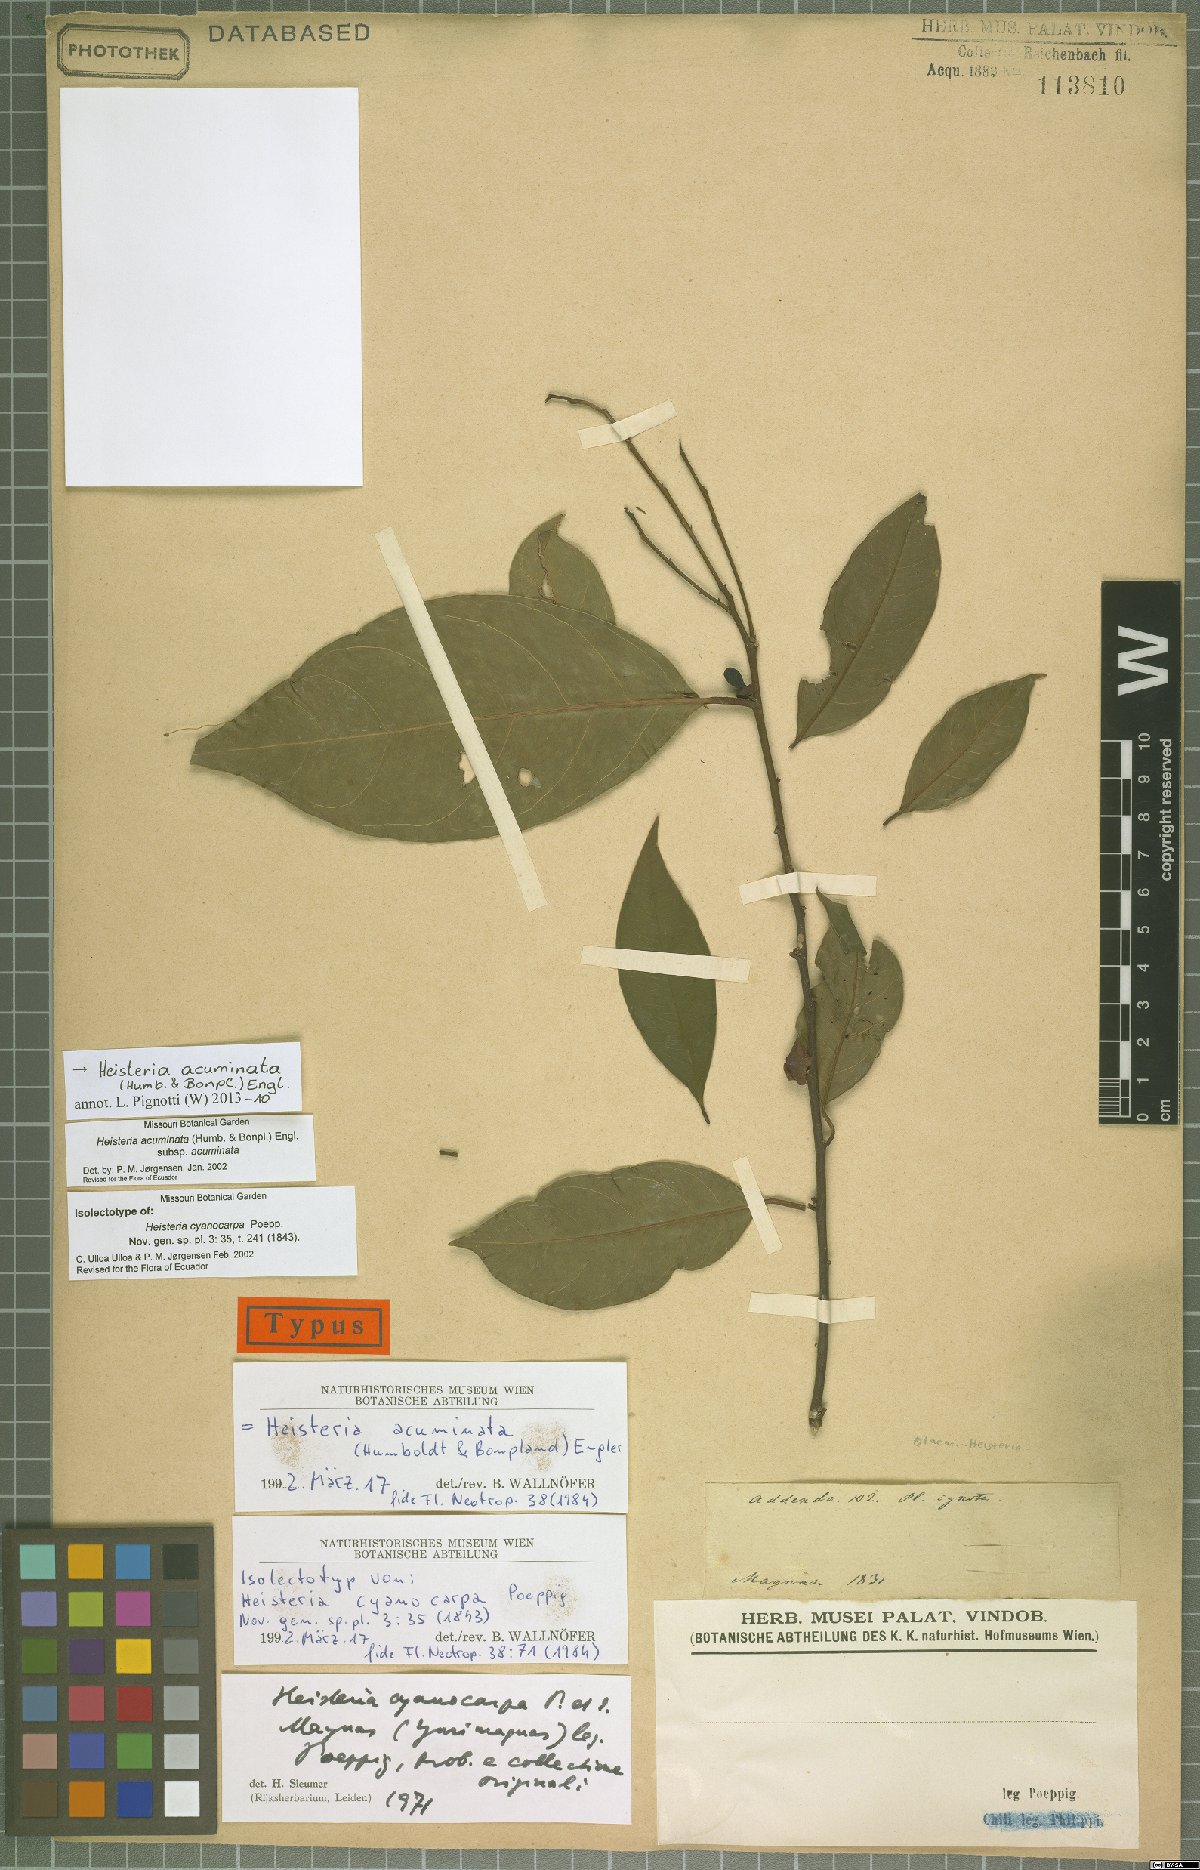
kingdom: Plantae
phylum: Tracheophyta
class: Magnoliopsida
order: Santalales
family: Erythropalaceae
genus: Heisteria
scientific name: Heisteria acuminata
